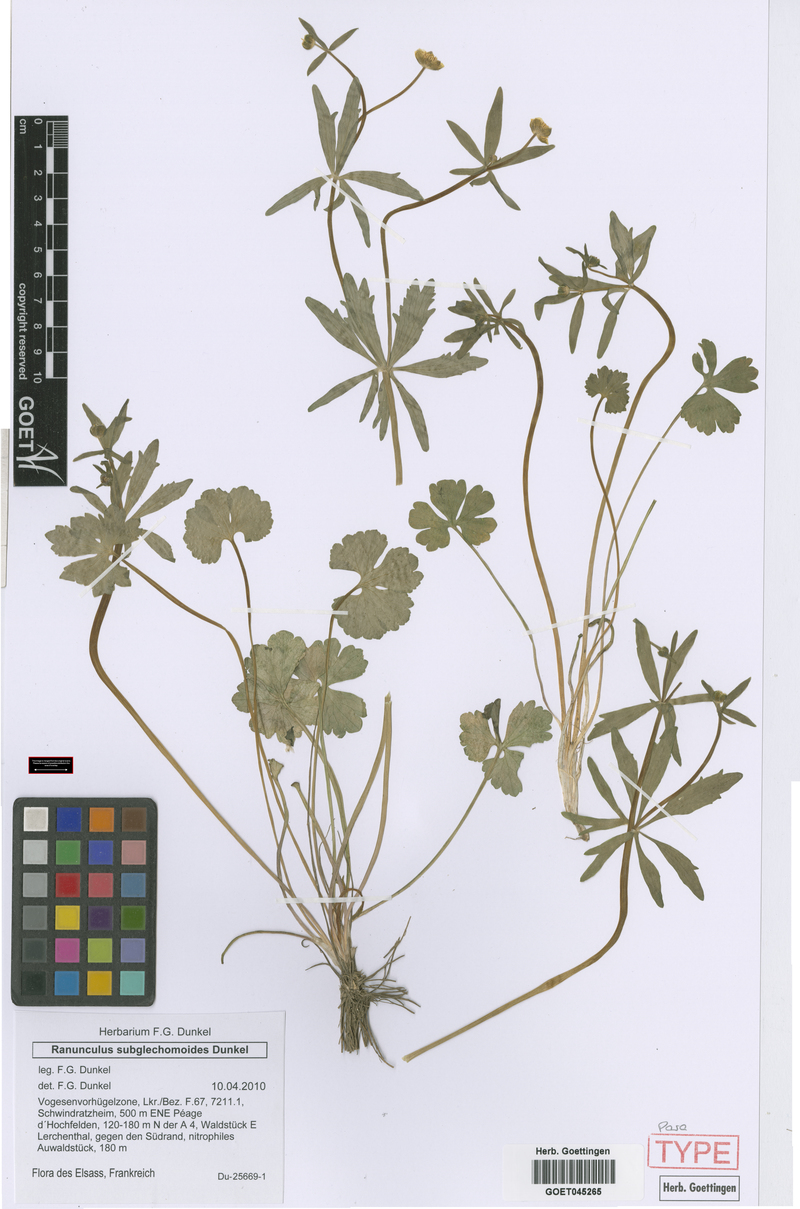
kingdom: Plantae
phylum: Tracheophyta
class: Magnoliopsida
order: Ranunculales
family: Ranunculaceae
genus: Ranunculus
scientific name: Ranunculus subglechomoides
